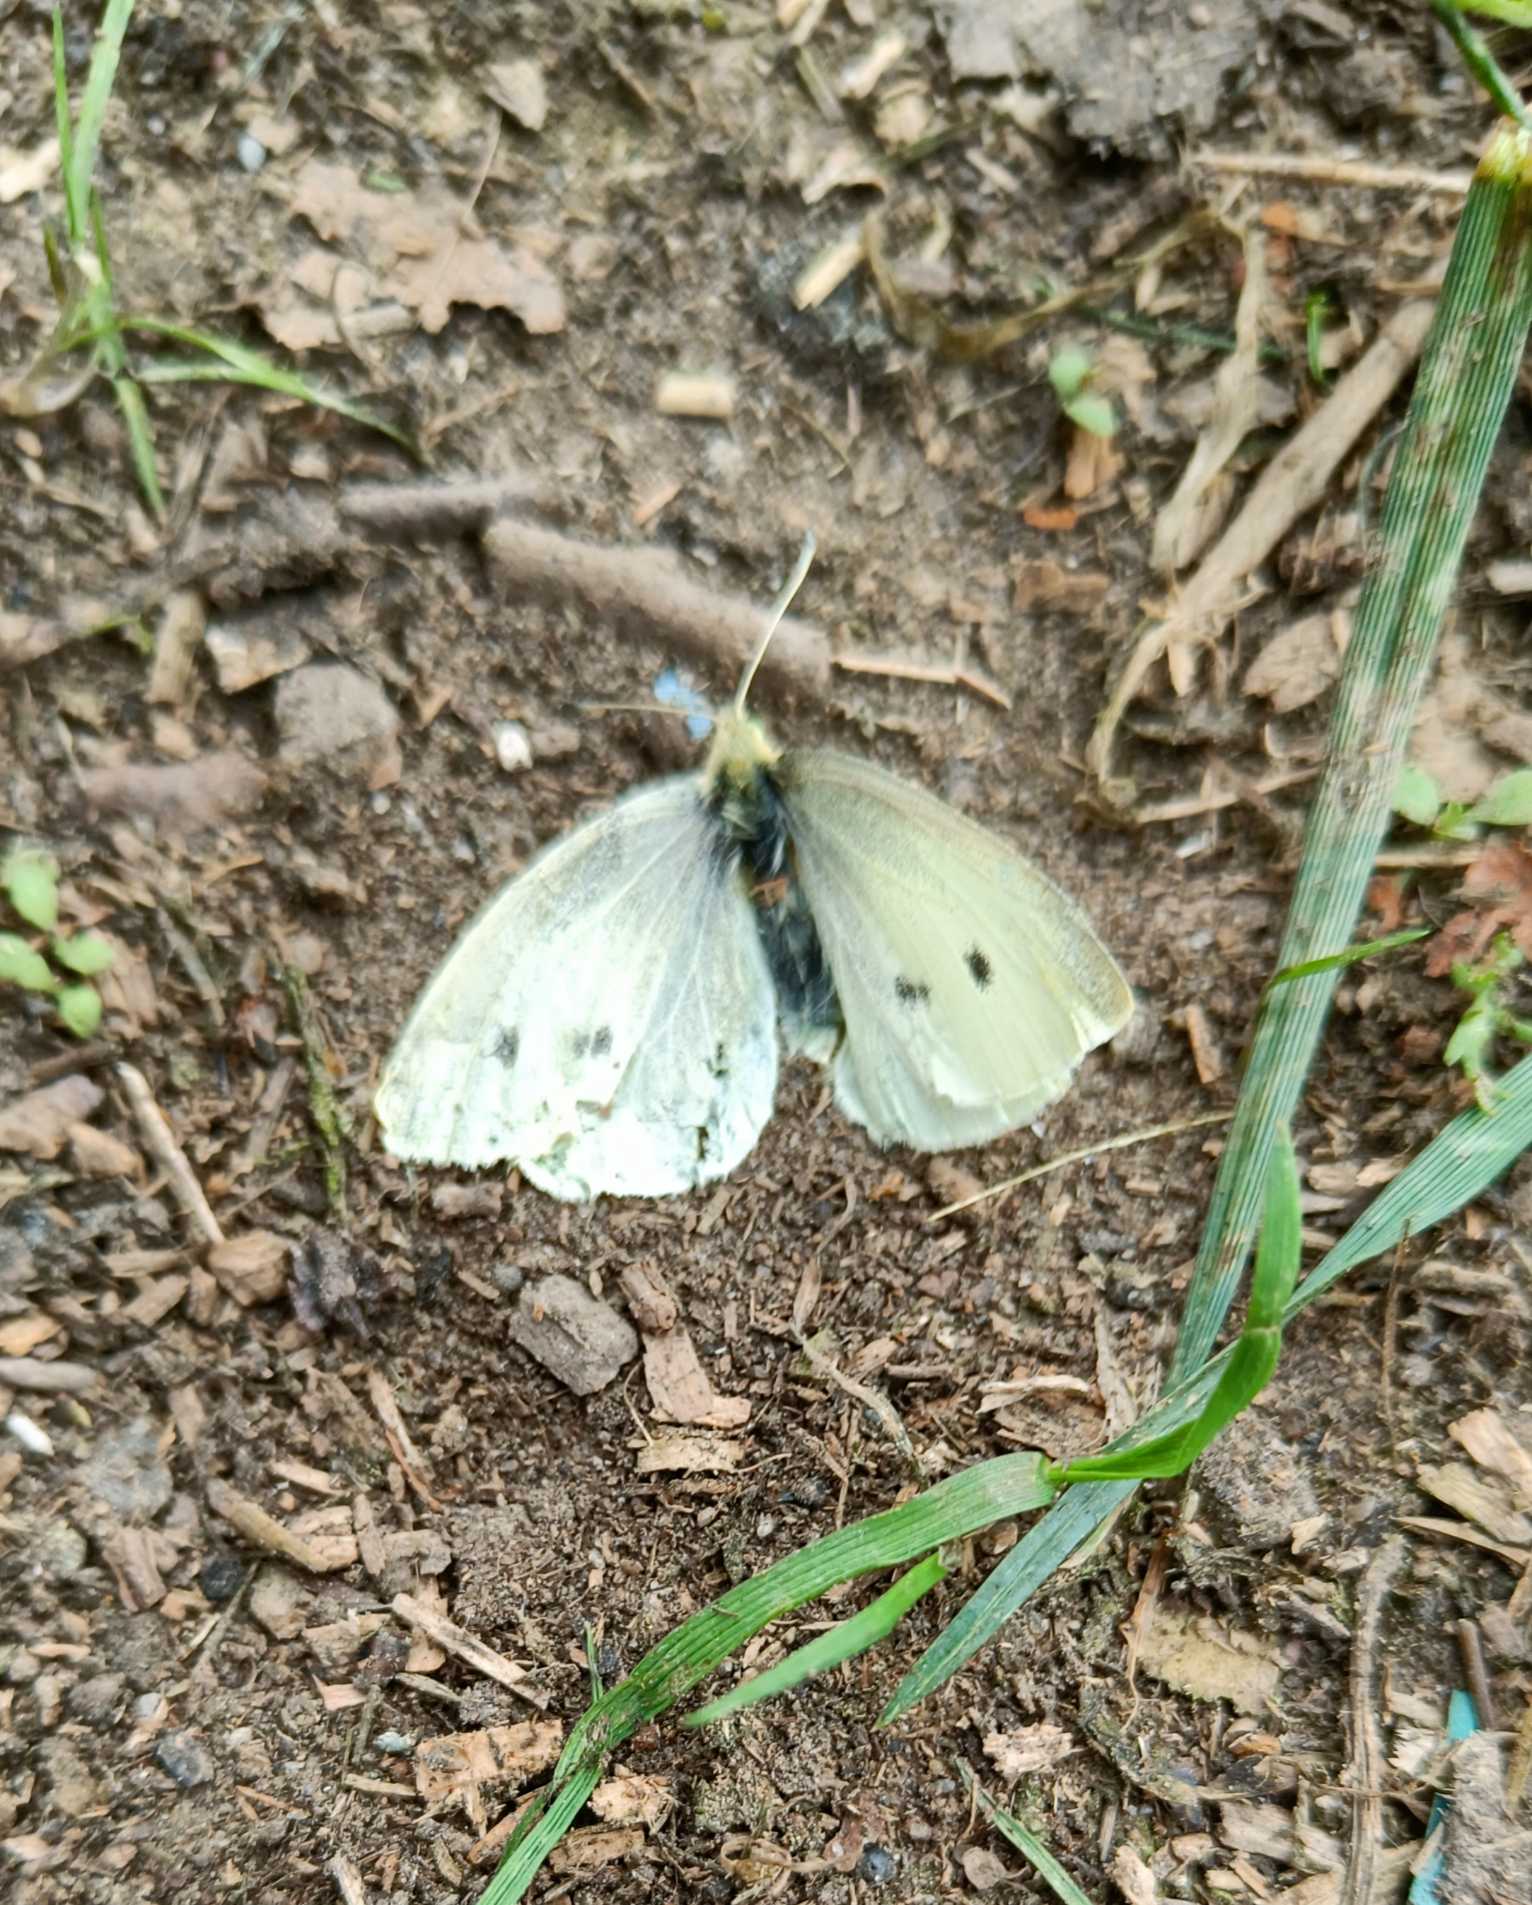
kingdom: Animalia
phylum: Arthropoda
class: Insecta
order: Lepidoptera
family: Pieridae
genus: Pieris
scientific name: Pieris rapae
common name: Lille kålsommerfugl
